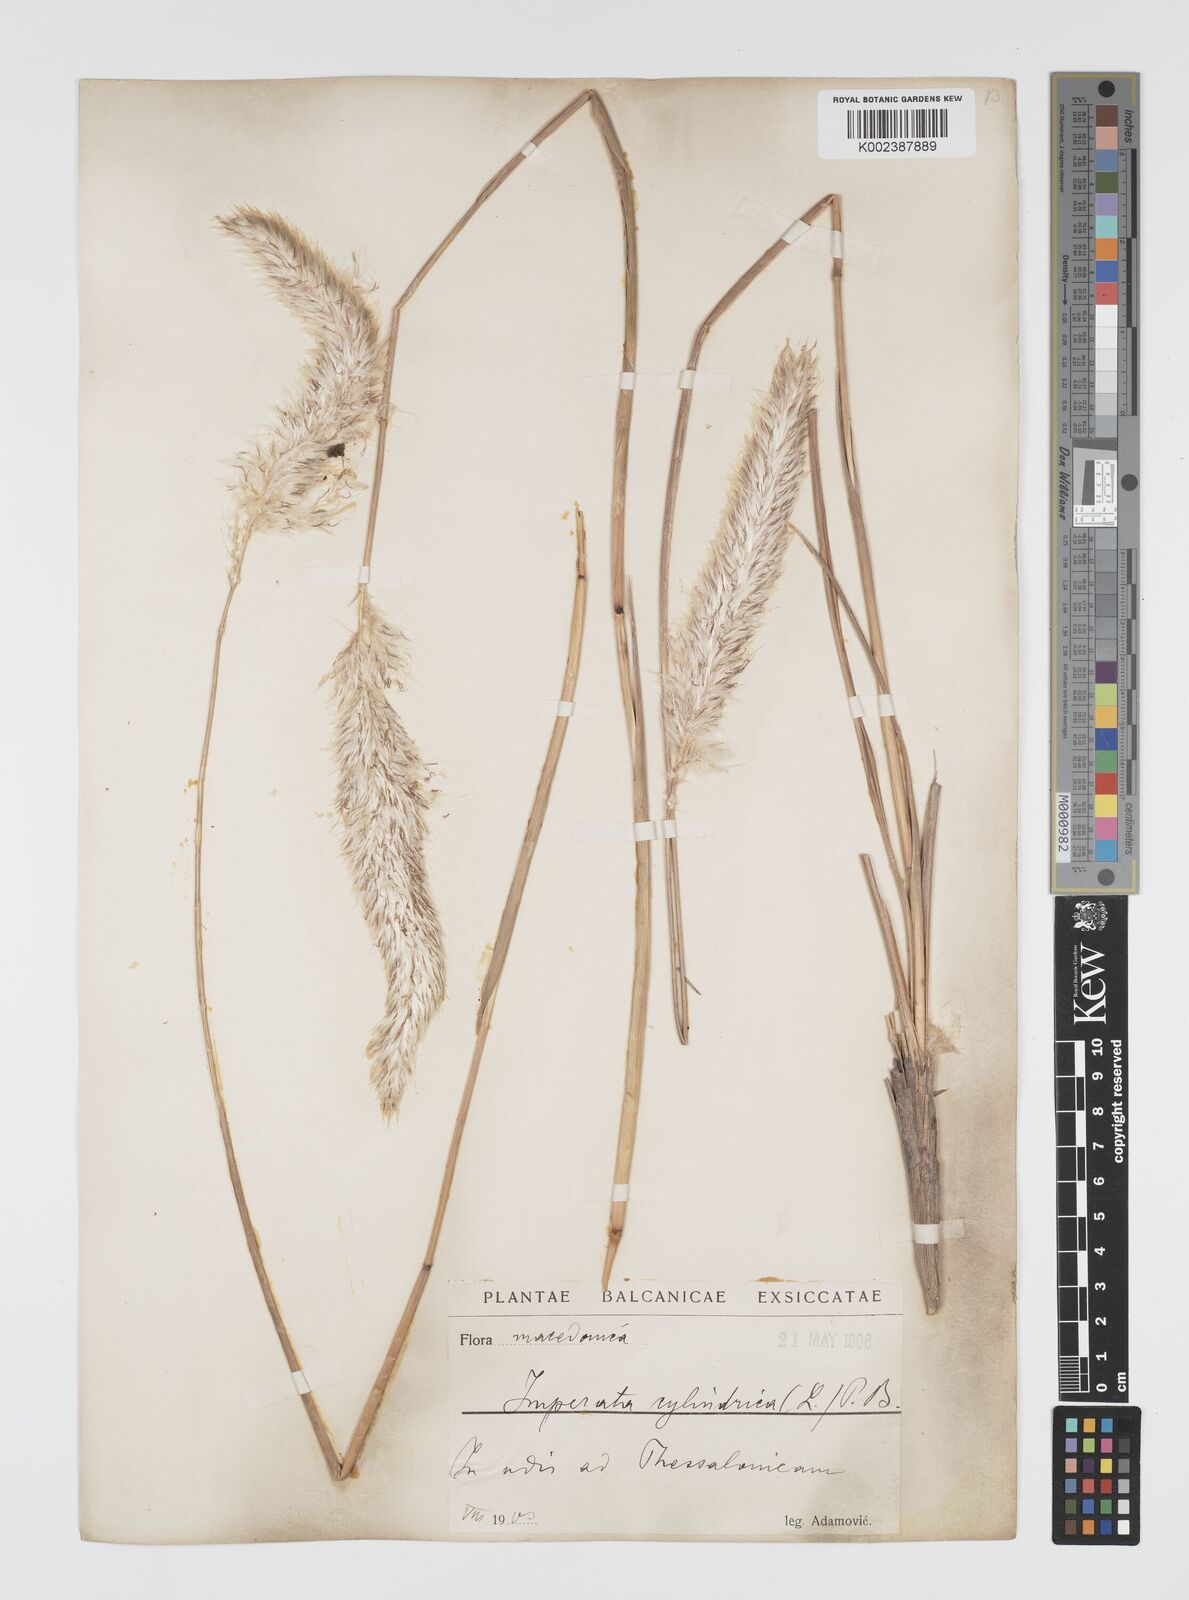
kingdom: Plantae
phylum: Tracheophyta
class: Liliopsida
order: Poales
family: Poaceae
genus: Imperata
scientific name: Imperata cylindrica
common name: Cogongrass
